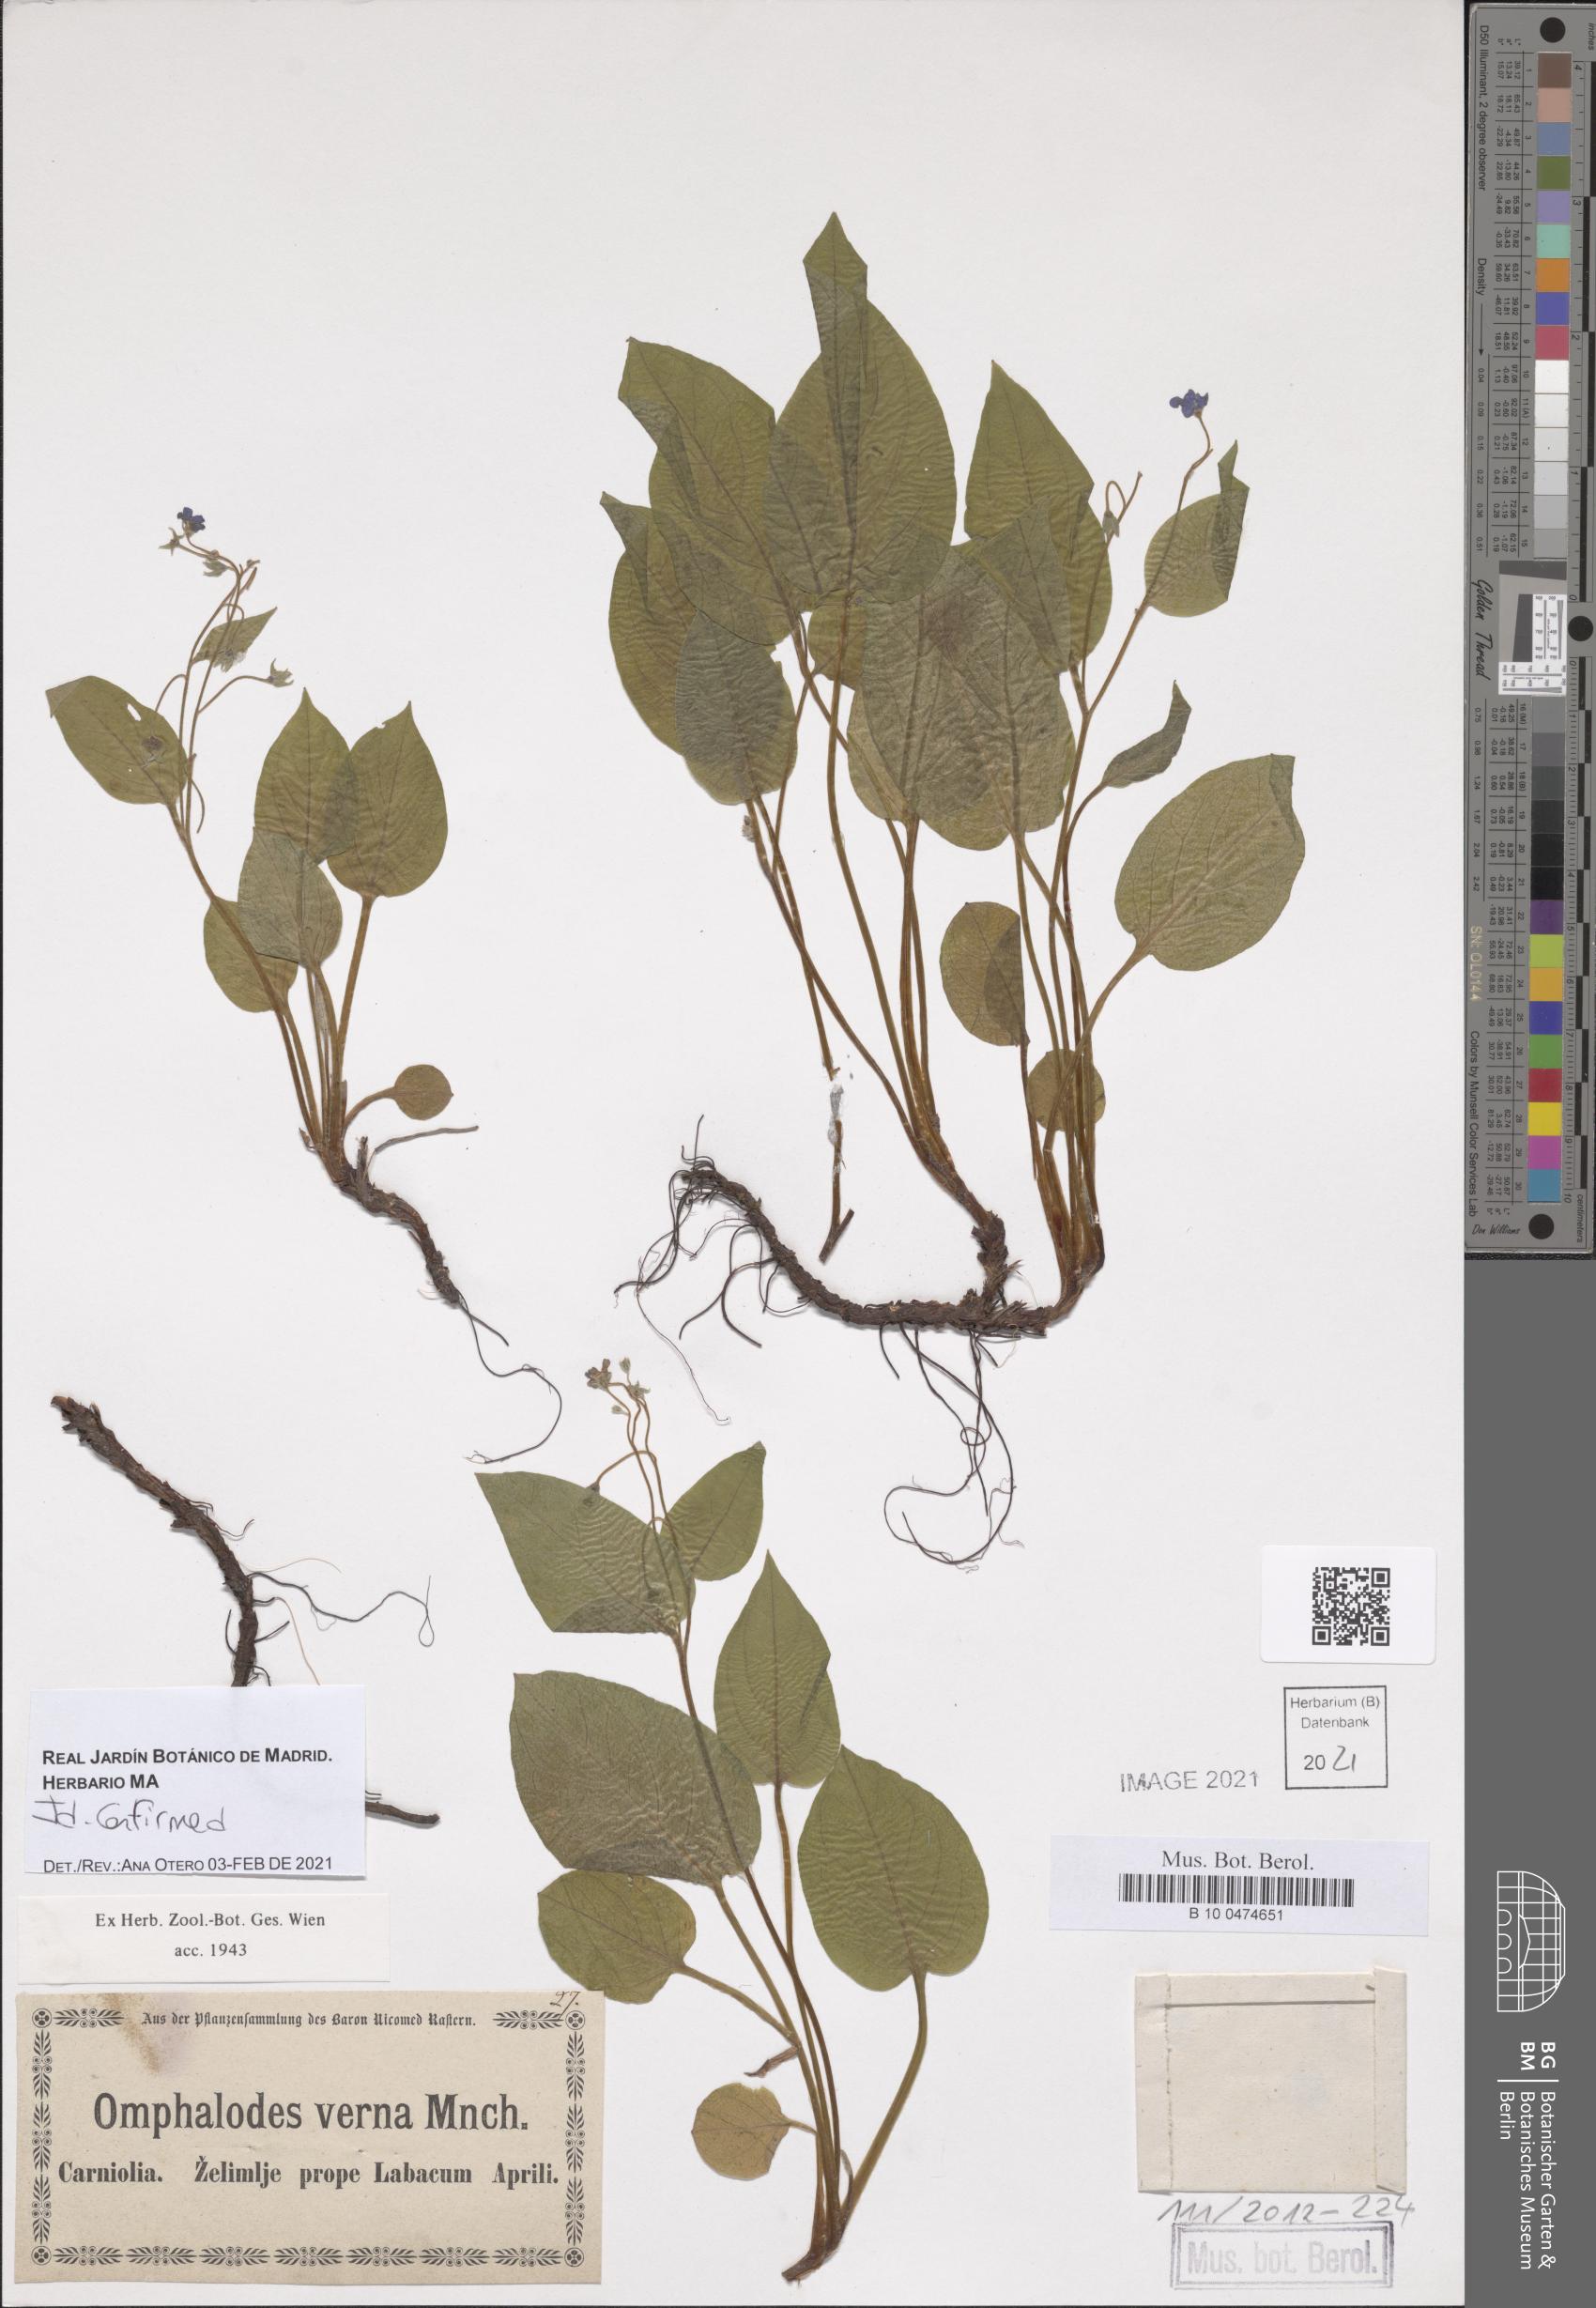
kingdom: Plantae
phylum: Tracheophyta
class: Magnoliopsida
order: Boraginales
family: Boraginaceae
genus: Omphalodes
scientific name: Omphalodes verna
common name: Blue-eyed-mary
